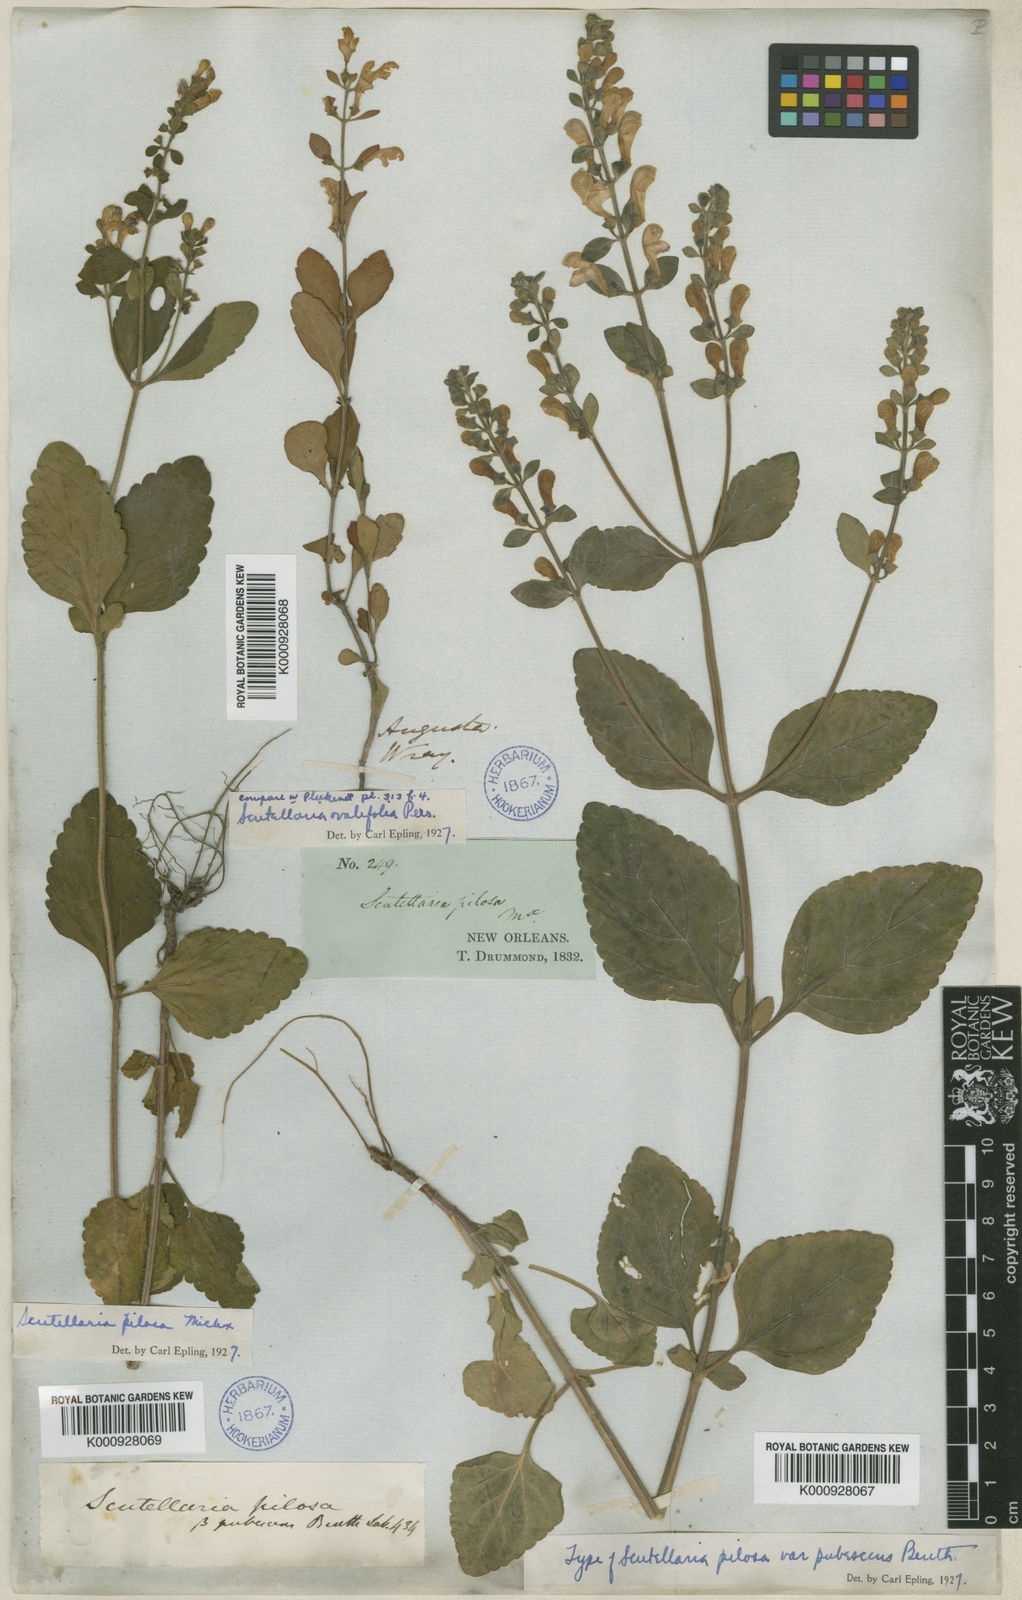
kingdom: Plantae
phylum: Tracheophyta
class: Magnoliopsida
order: Lamiales
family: Lamiaceae
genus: Scutellaria
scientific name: Scutellaria elliptica
